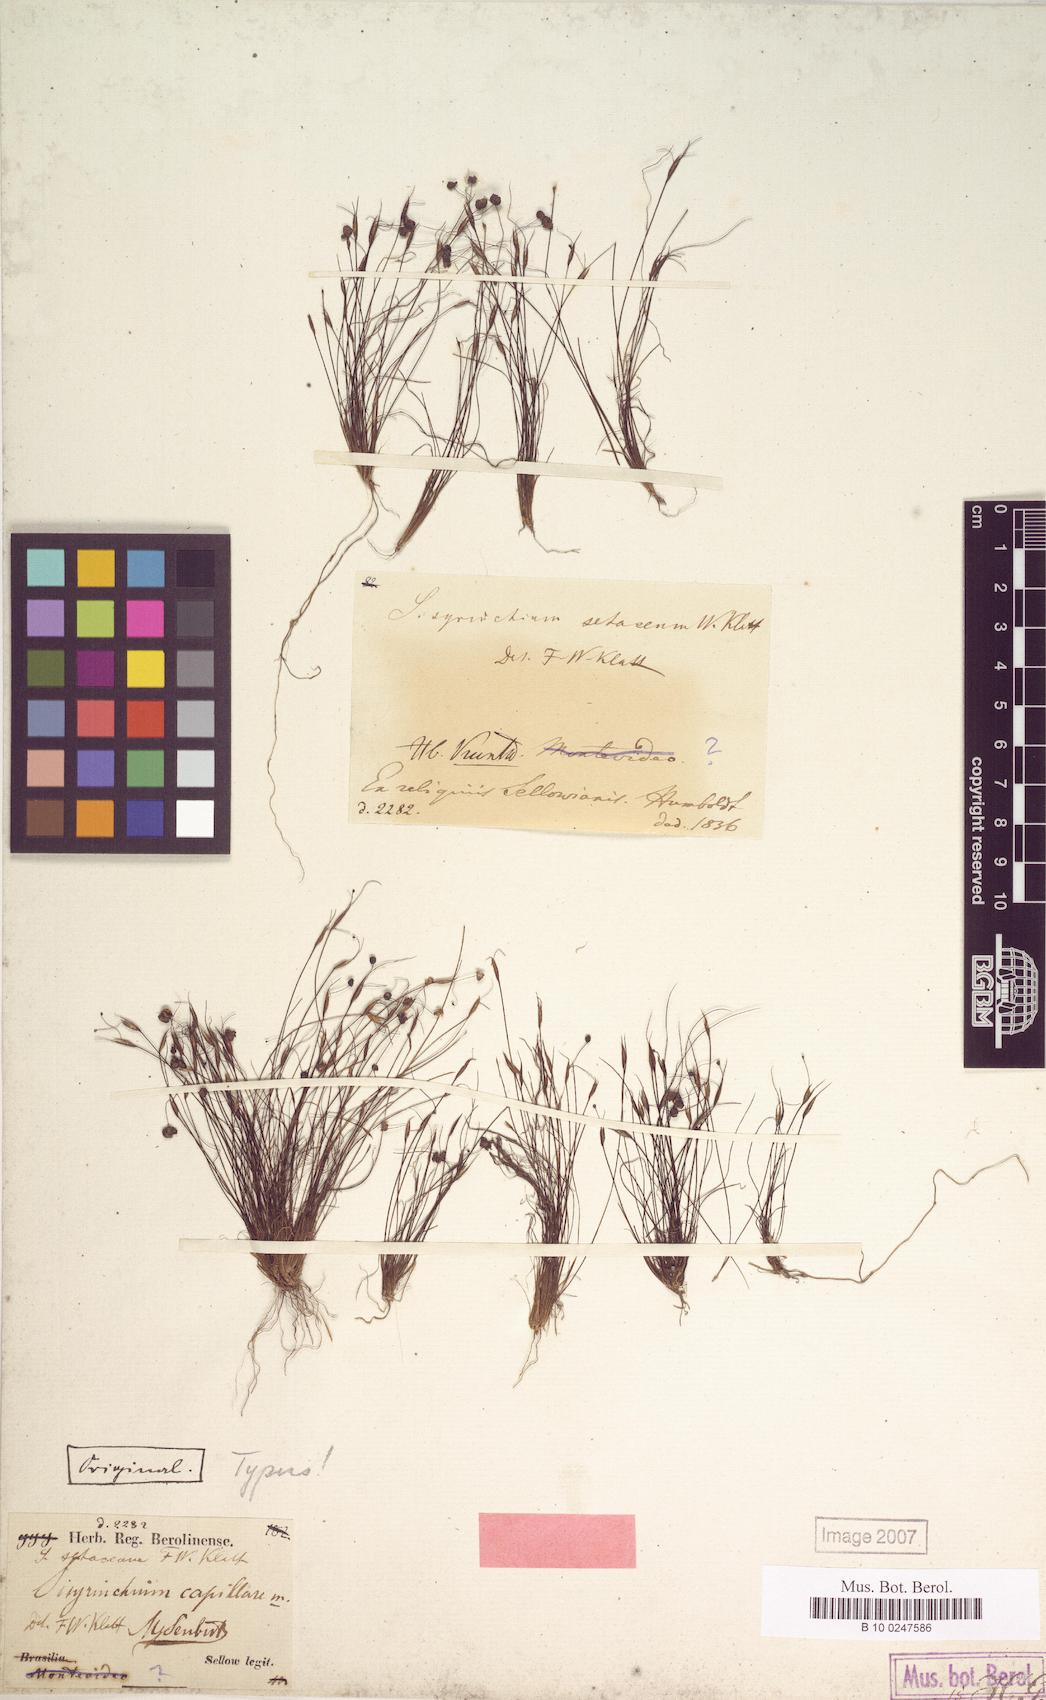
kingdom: Plantae
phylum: Tracheophyta
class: Liliopsida
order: Asparagales
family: Iridaceae
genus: Sisyrinchium
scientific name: Sisyrinchium setaceum
